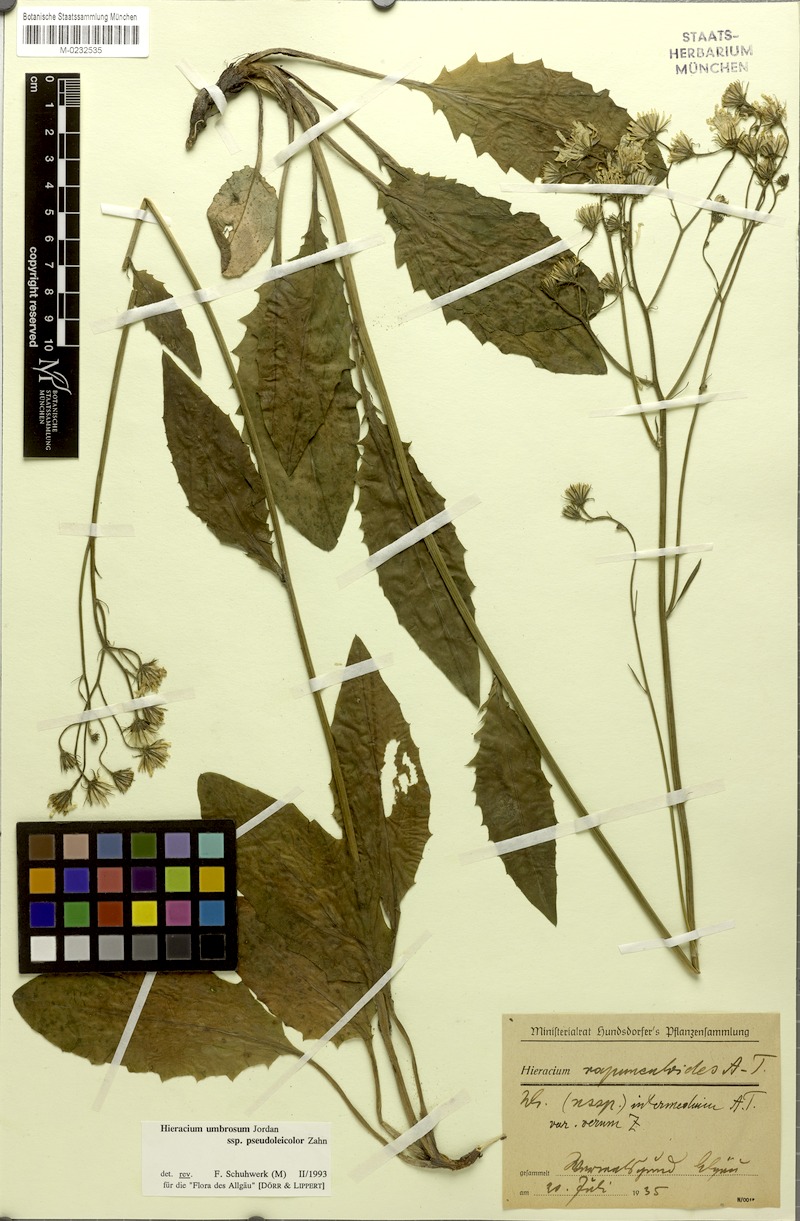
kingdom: Plantae
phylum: Tracheophyta
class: Magnoliopsida
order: Asterales
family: Asteraceae
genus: Hieracium
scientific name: Hieracium umbrosum
